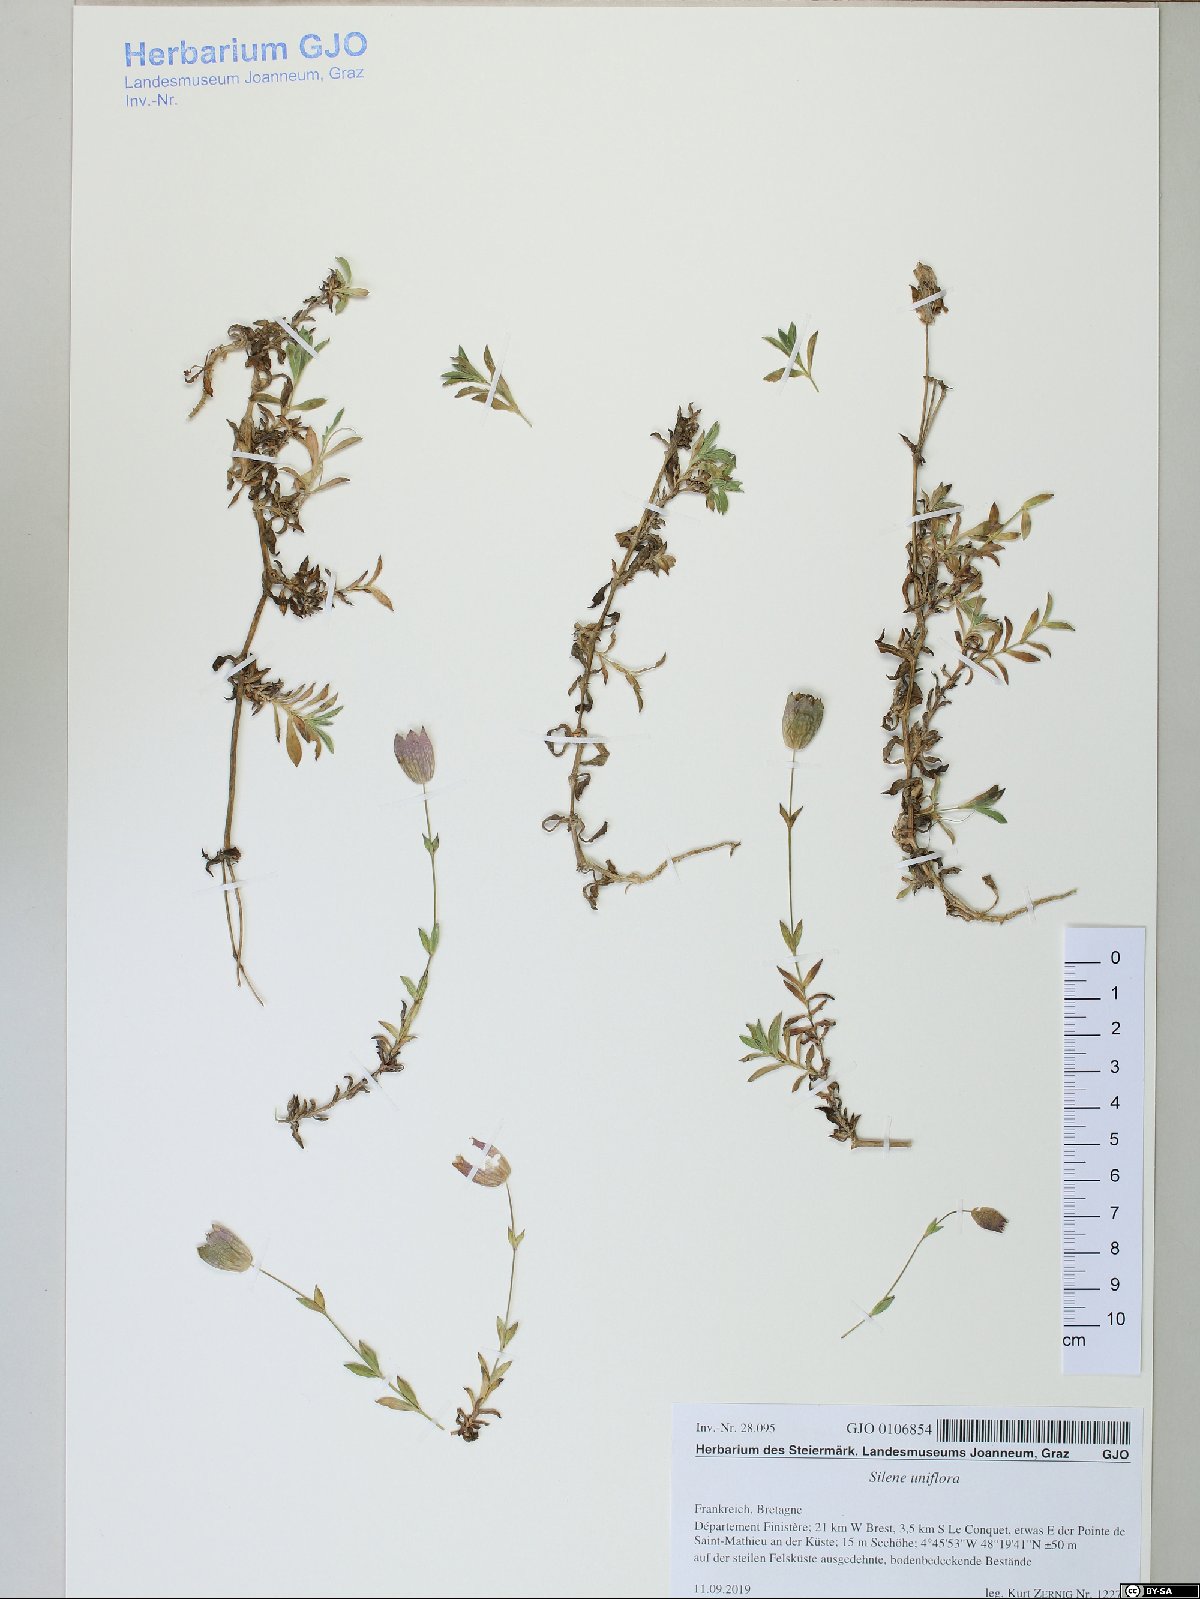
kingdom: Plantae
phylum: Tracheophyta
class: Magnoliopsida
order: Caryophyllales
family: Caryophyllaceae
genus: Silene
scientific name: Silene uniflora
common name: Sea campion
